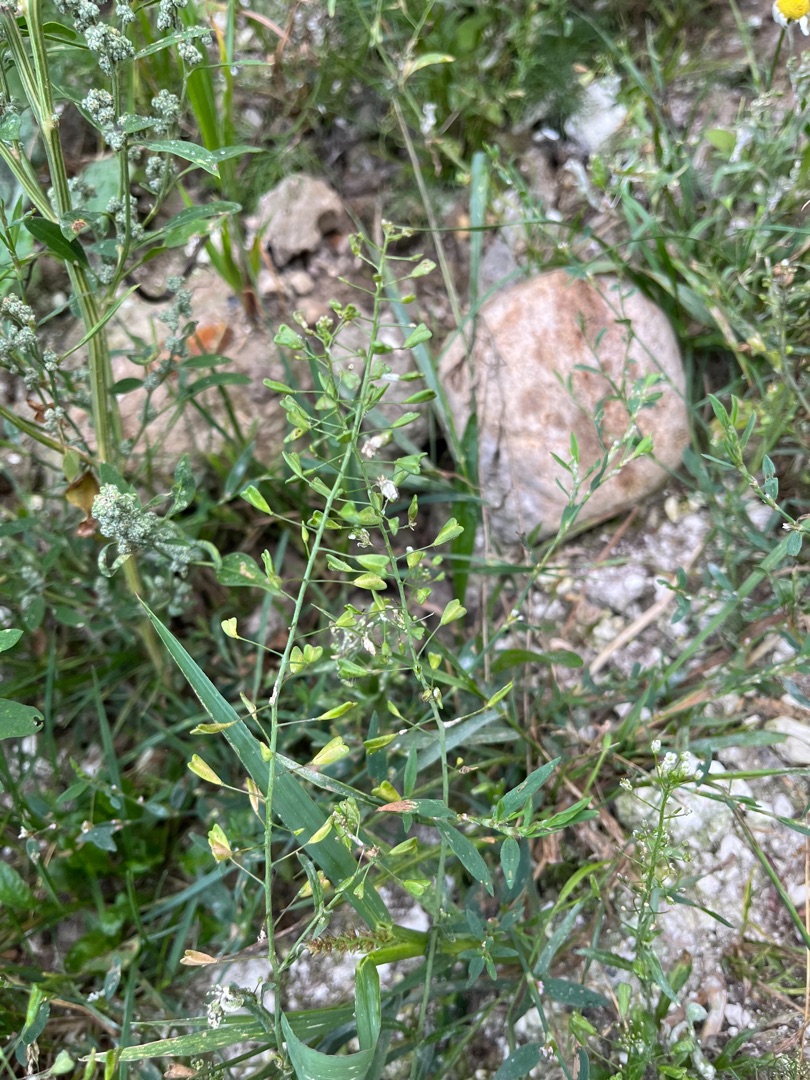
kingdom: Plantae
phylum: Tracheophyta
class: Magnoliopsida
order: Brassicales
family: Brassicaceae
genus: Capsella
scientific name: Capsella bursa-pastoris
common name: Hyrdetaske
